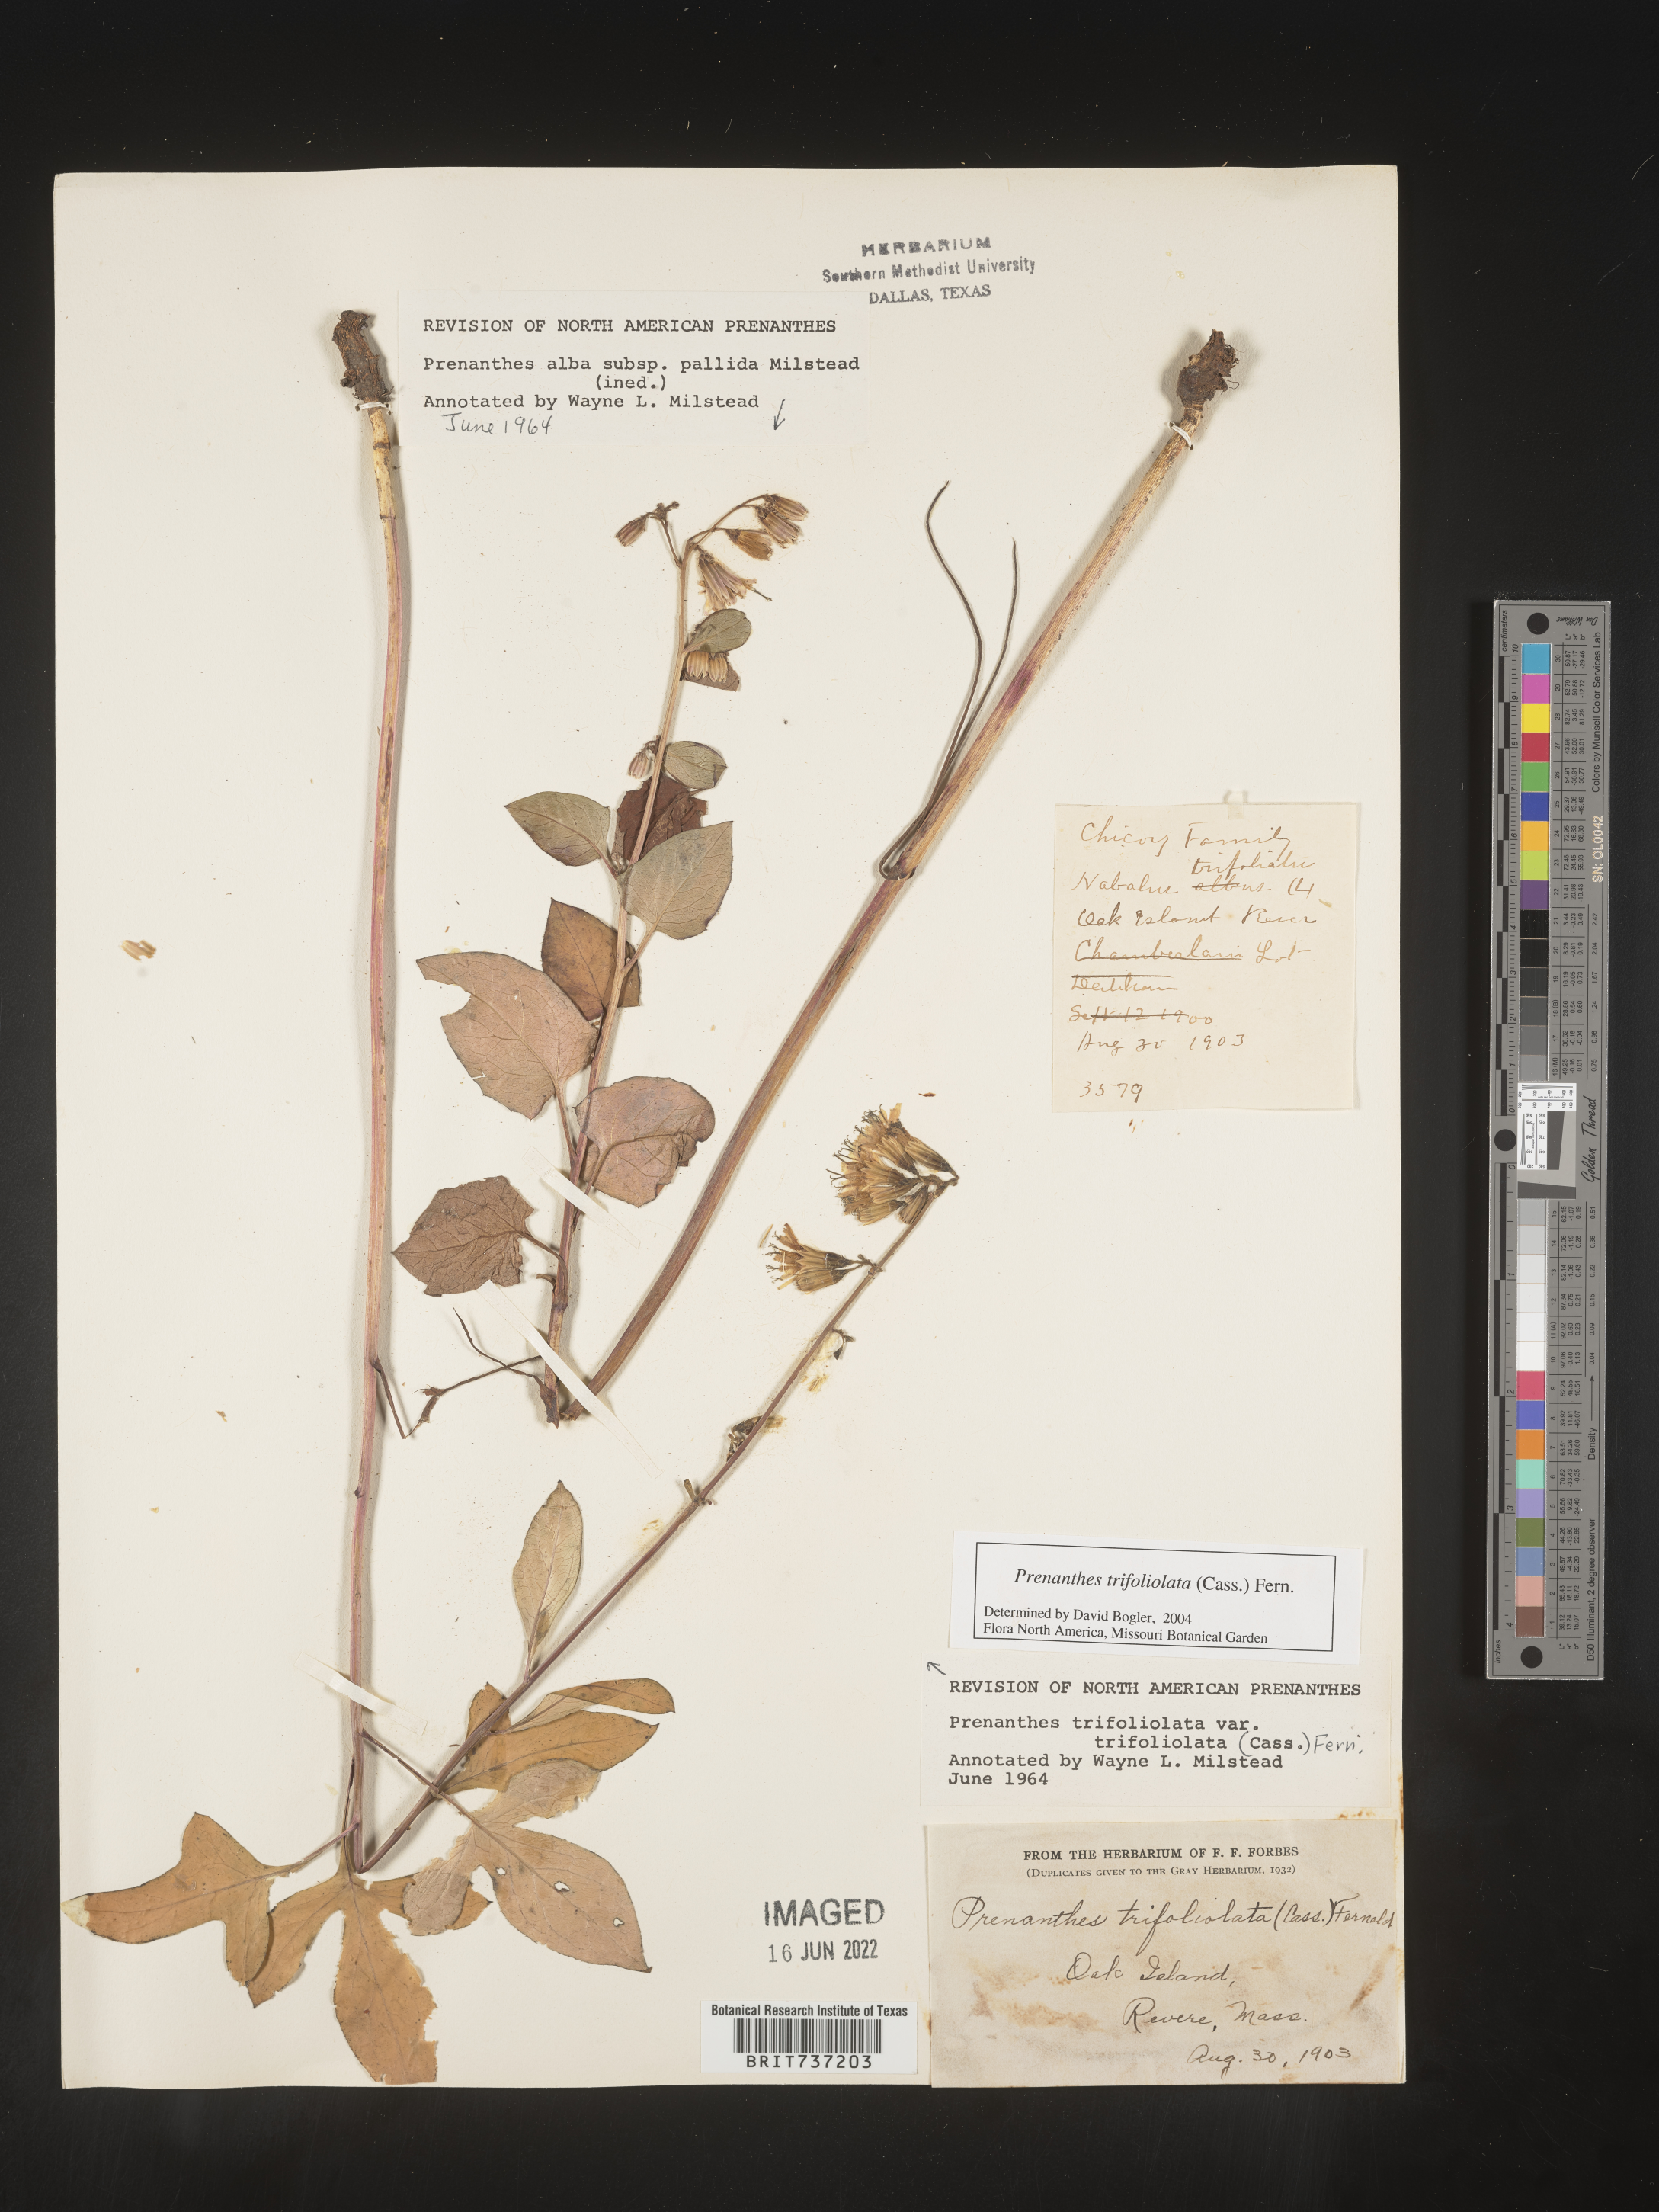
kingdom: Plantae
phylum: Tracheophyta
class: Magnoliopsida
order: Asterales
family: Asteraceae
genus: Nabalus
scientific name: Nabalus trifoliolatus
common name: Gall-of-the-earth
